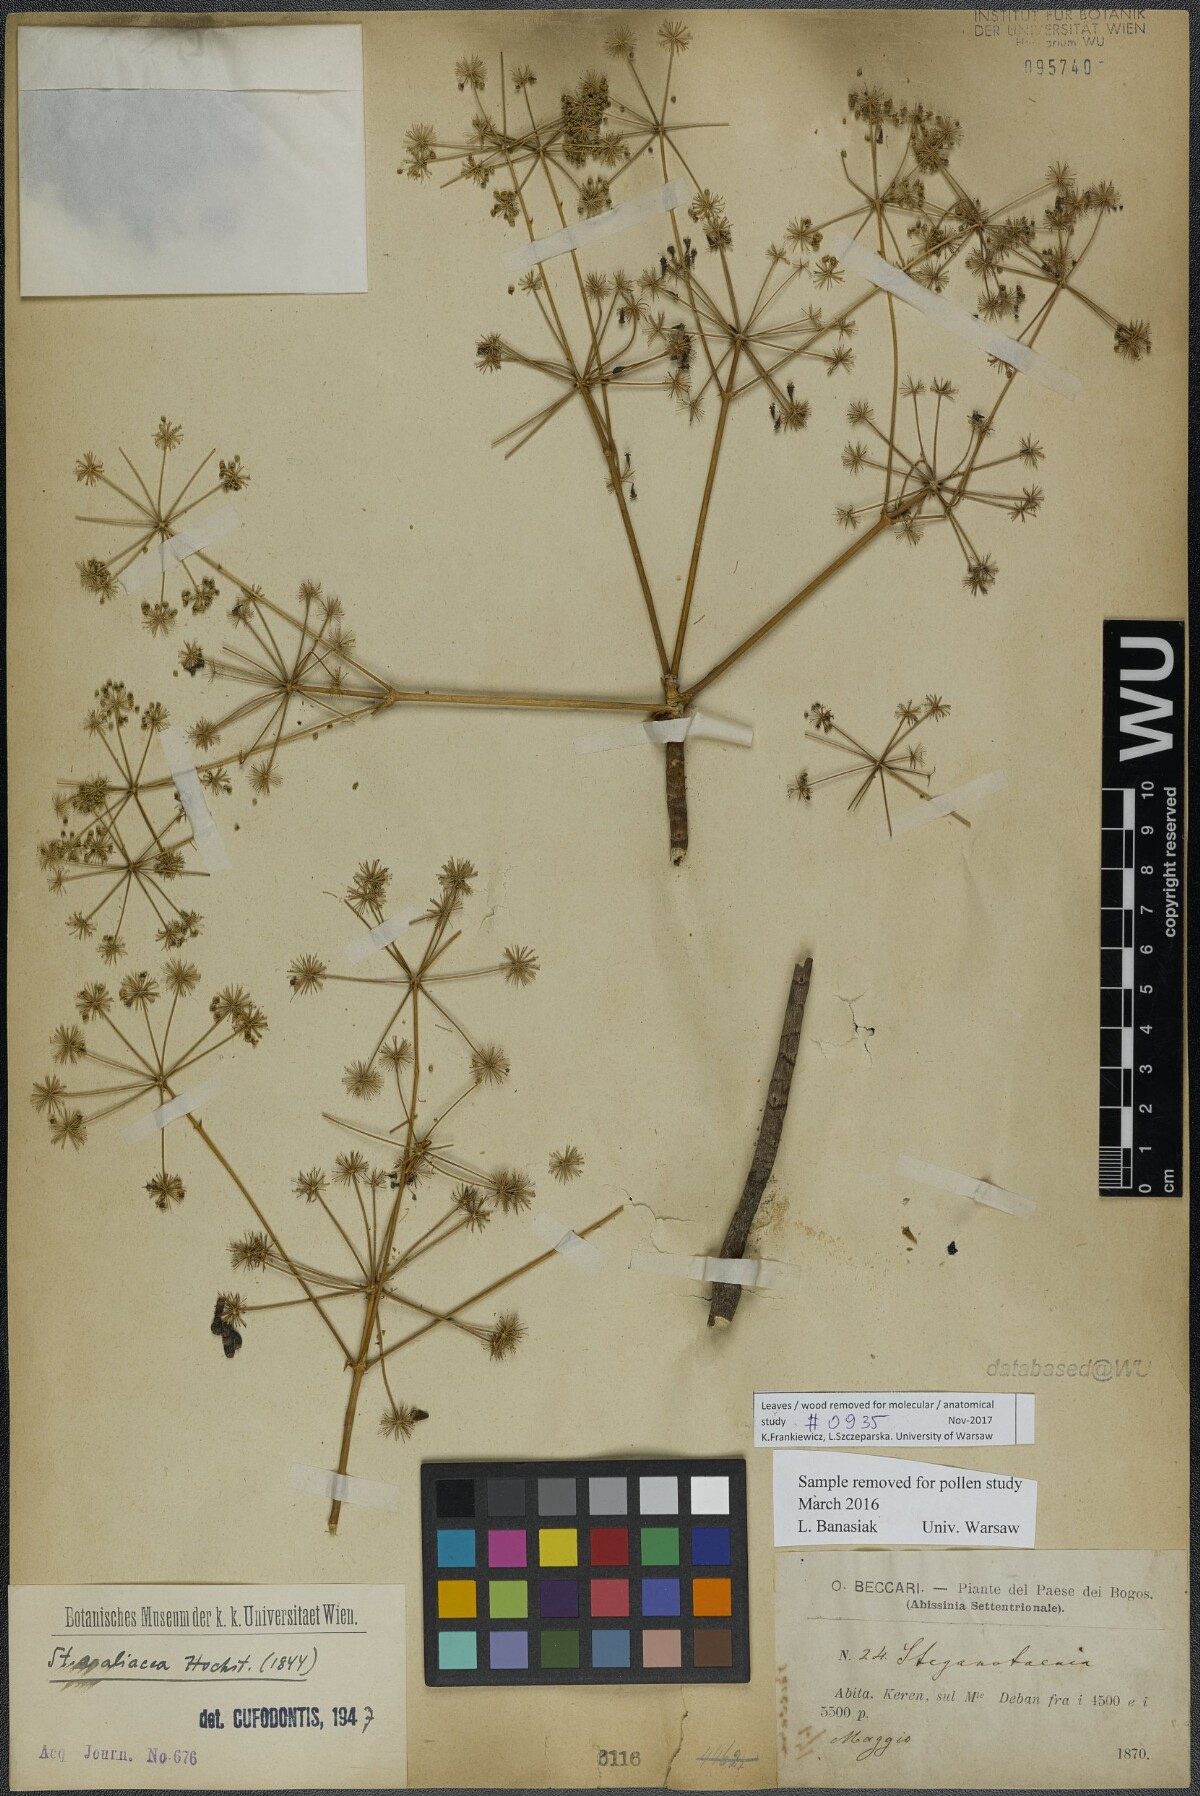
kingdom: Plantae
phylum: Tracheophyta
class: Magnoliopsida
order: Apiales
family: Apiaceae
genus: Steganotaenia
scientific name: Steganotaenia araliacea
